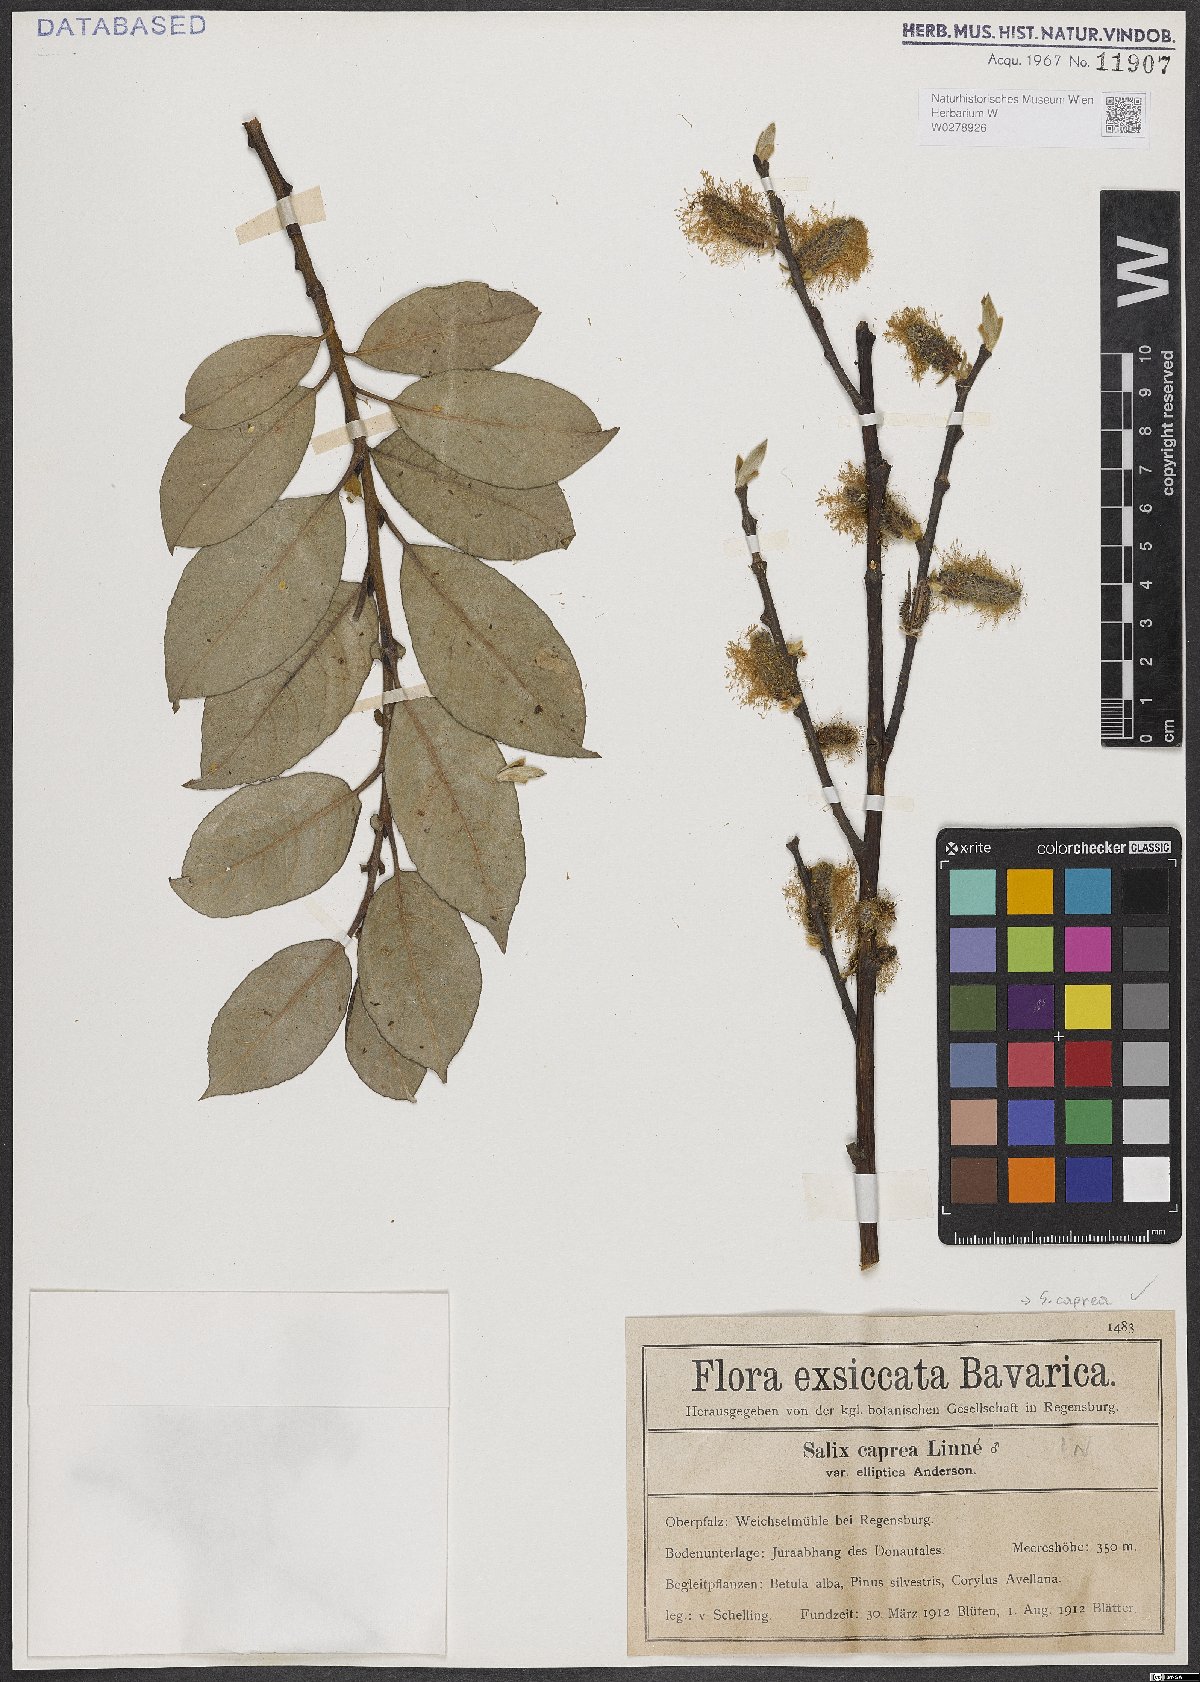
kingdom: Plantae
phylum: Tracheophyta
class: Magnoliopsida
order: Malpighiales
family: Salicaceae
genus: Salix
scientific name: Salix caprea
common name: Goat willow
